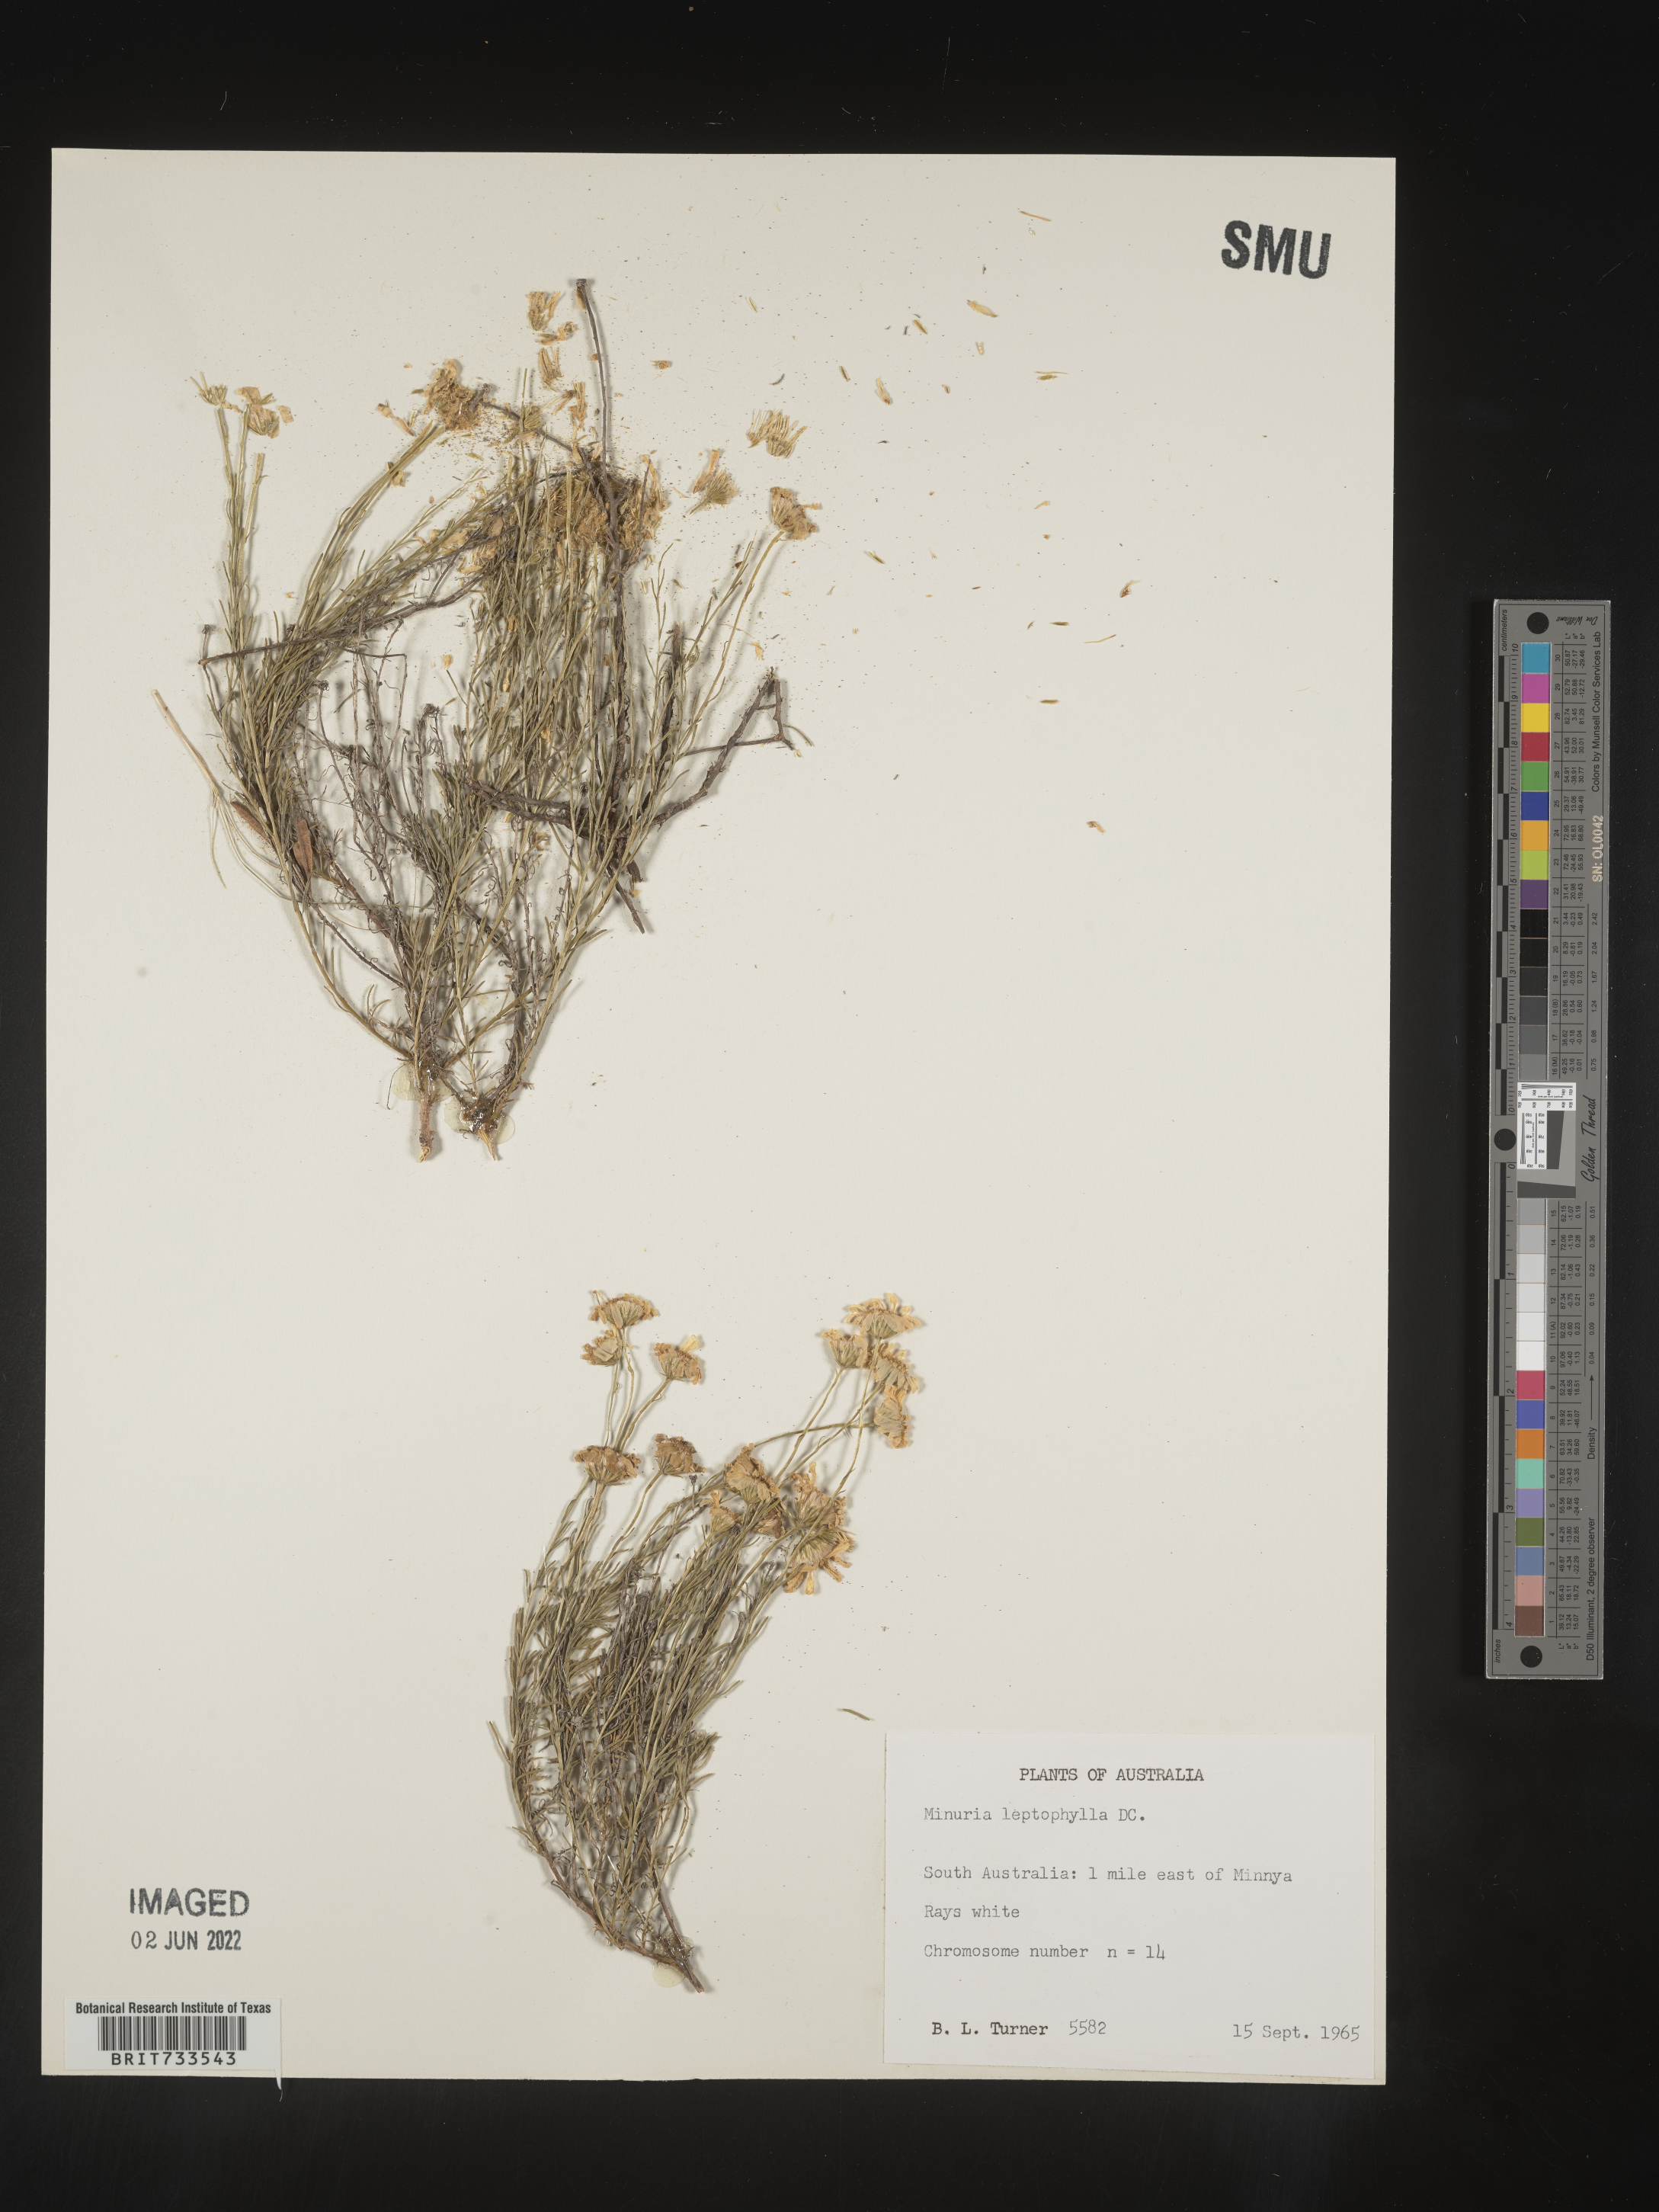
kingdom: Plantae
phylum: Tracheophyta
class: Magnoliopsida
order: Gentianales
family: Apocynaceae
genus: Minaria
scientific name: Minaria
